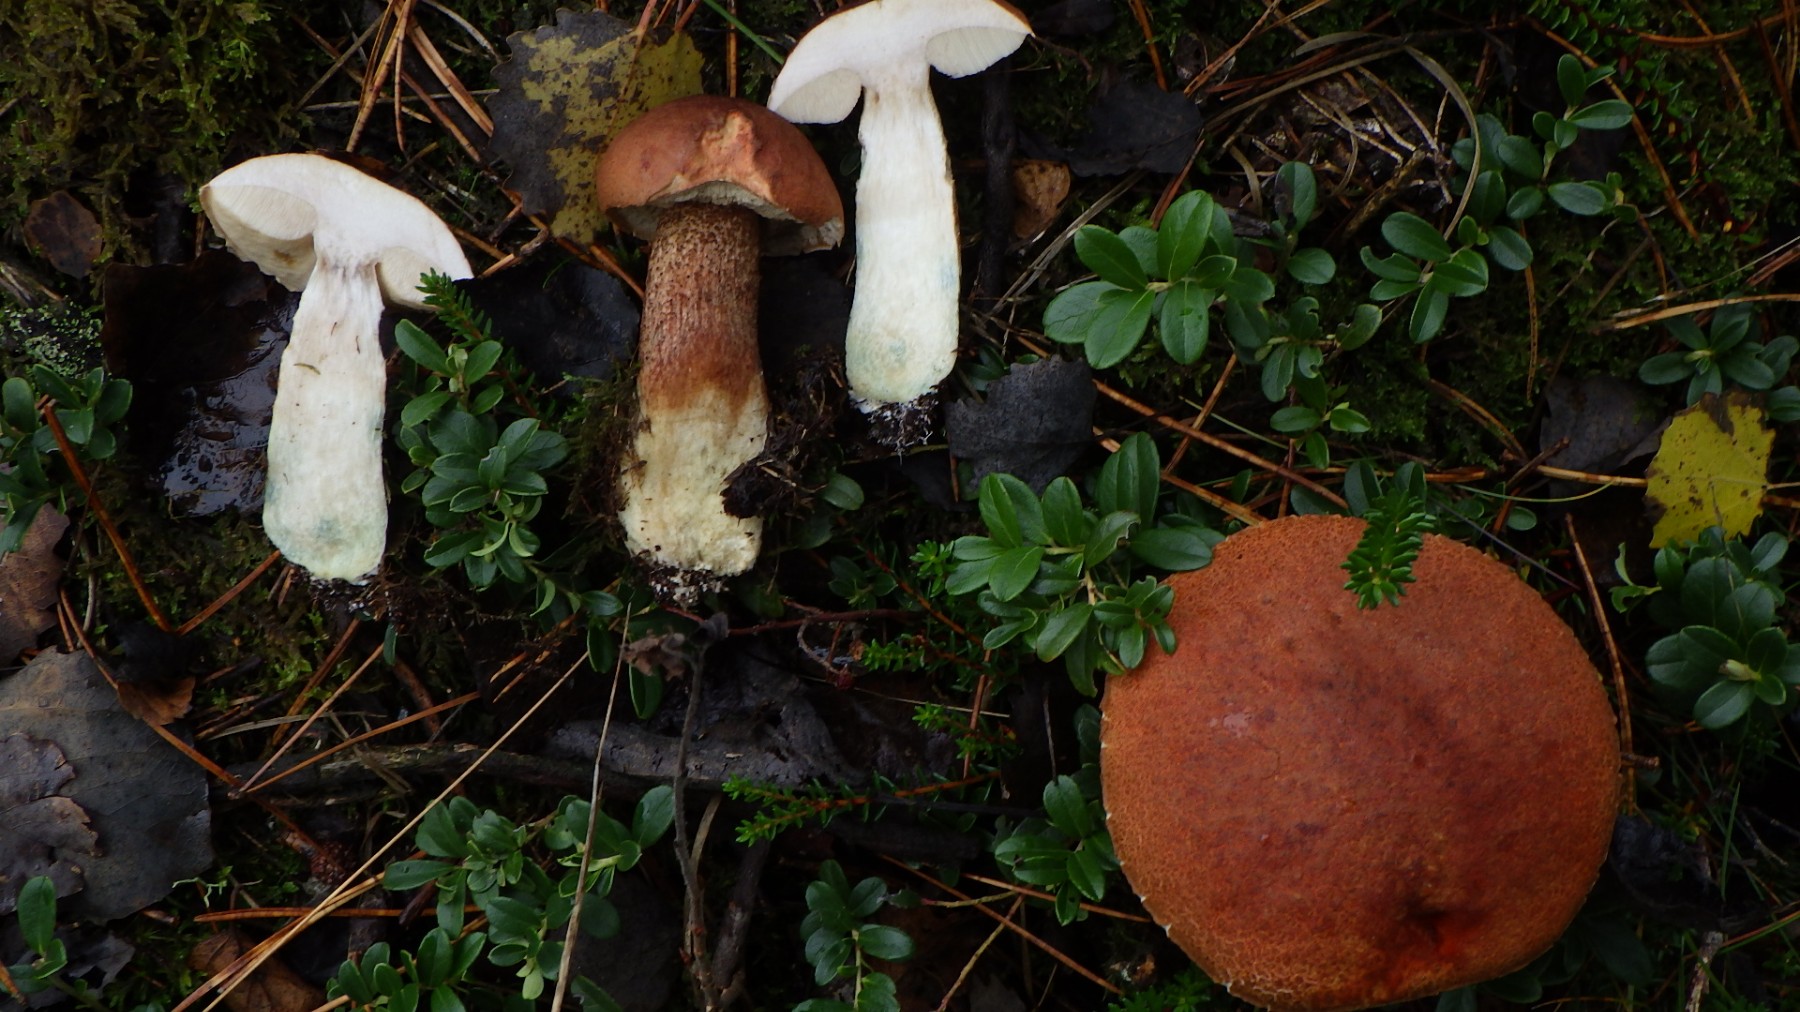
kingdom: Fungi
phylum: Basidiomycota
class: Agaricomycetes
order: Boletales
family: Boletaceae
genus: Leccinum
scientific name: Leccinum aurantiacum
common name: rustrød skælrørhat
